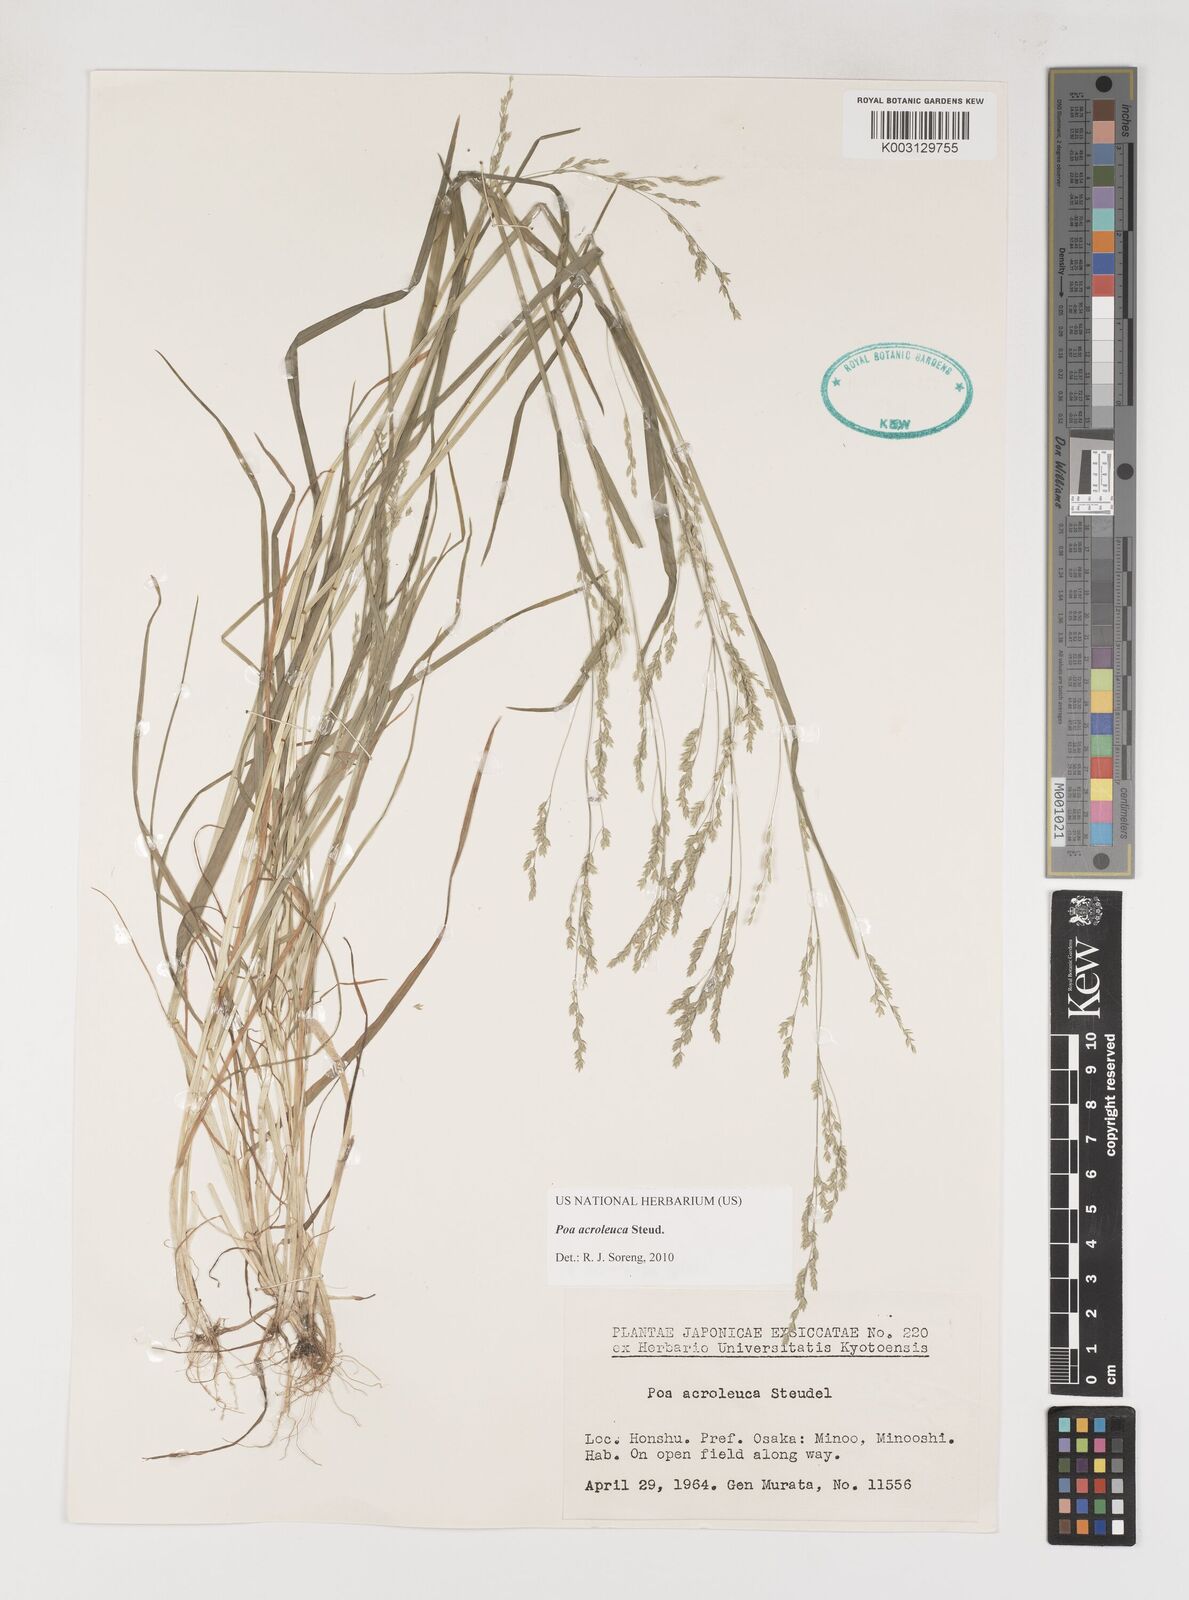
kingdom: Plantae
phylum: Tracheophyta
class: Liliopsida
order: Poales
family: Poaceae
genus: Poa
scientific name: Poa acroleuca
